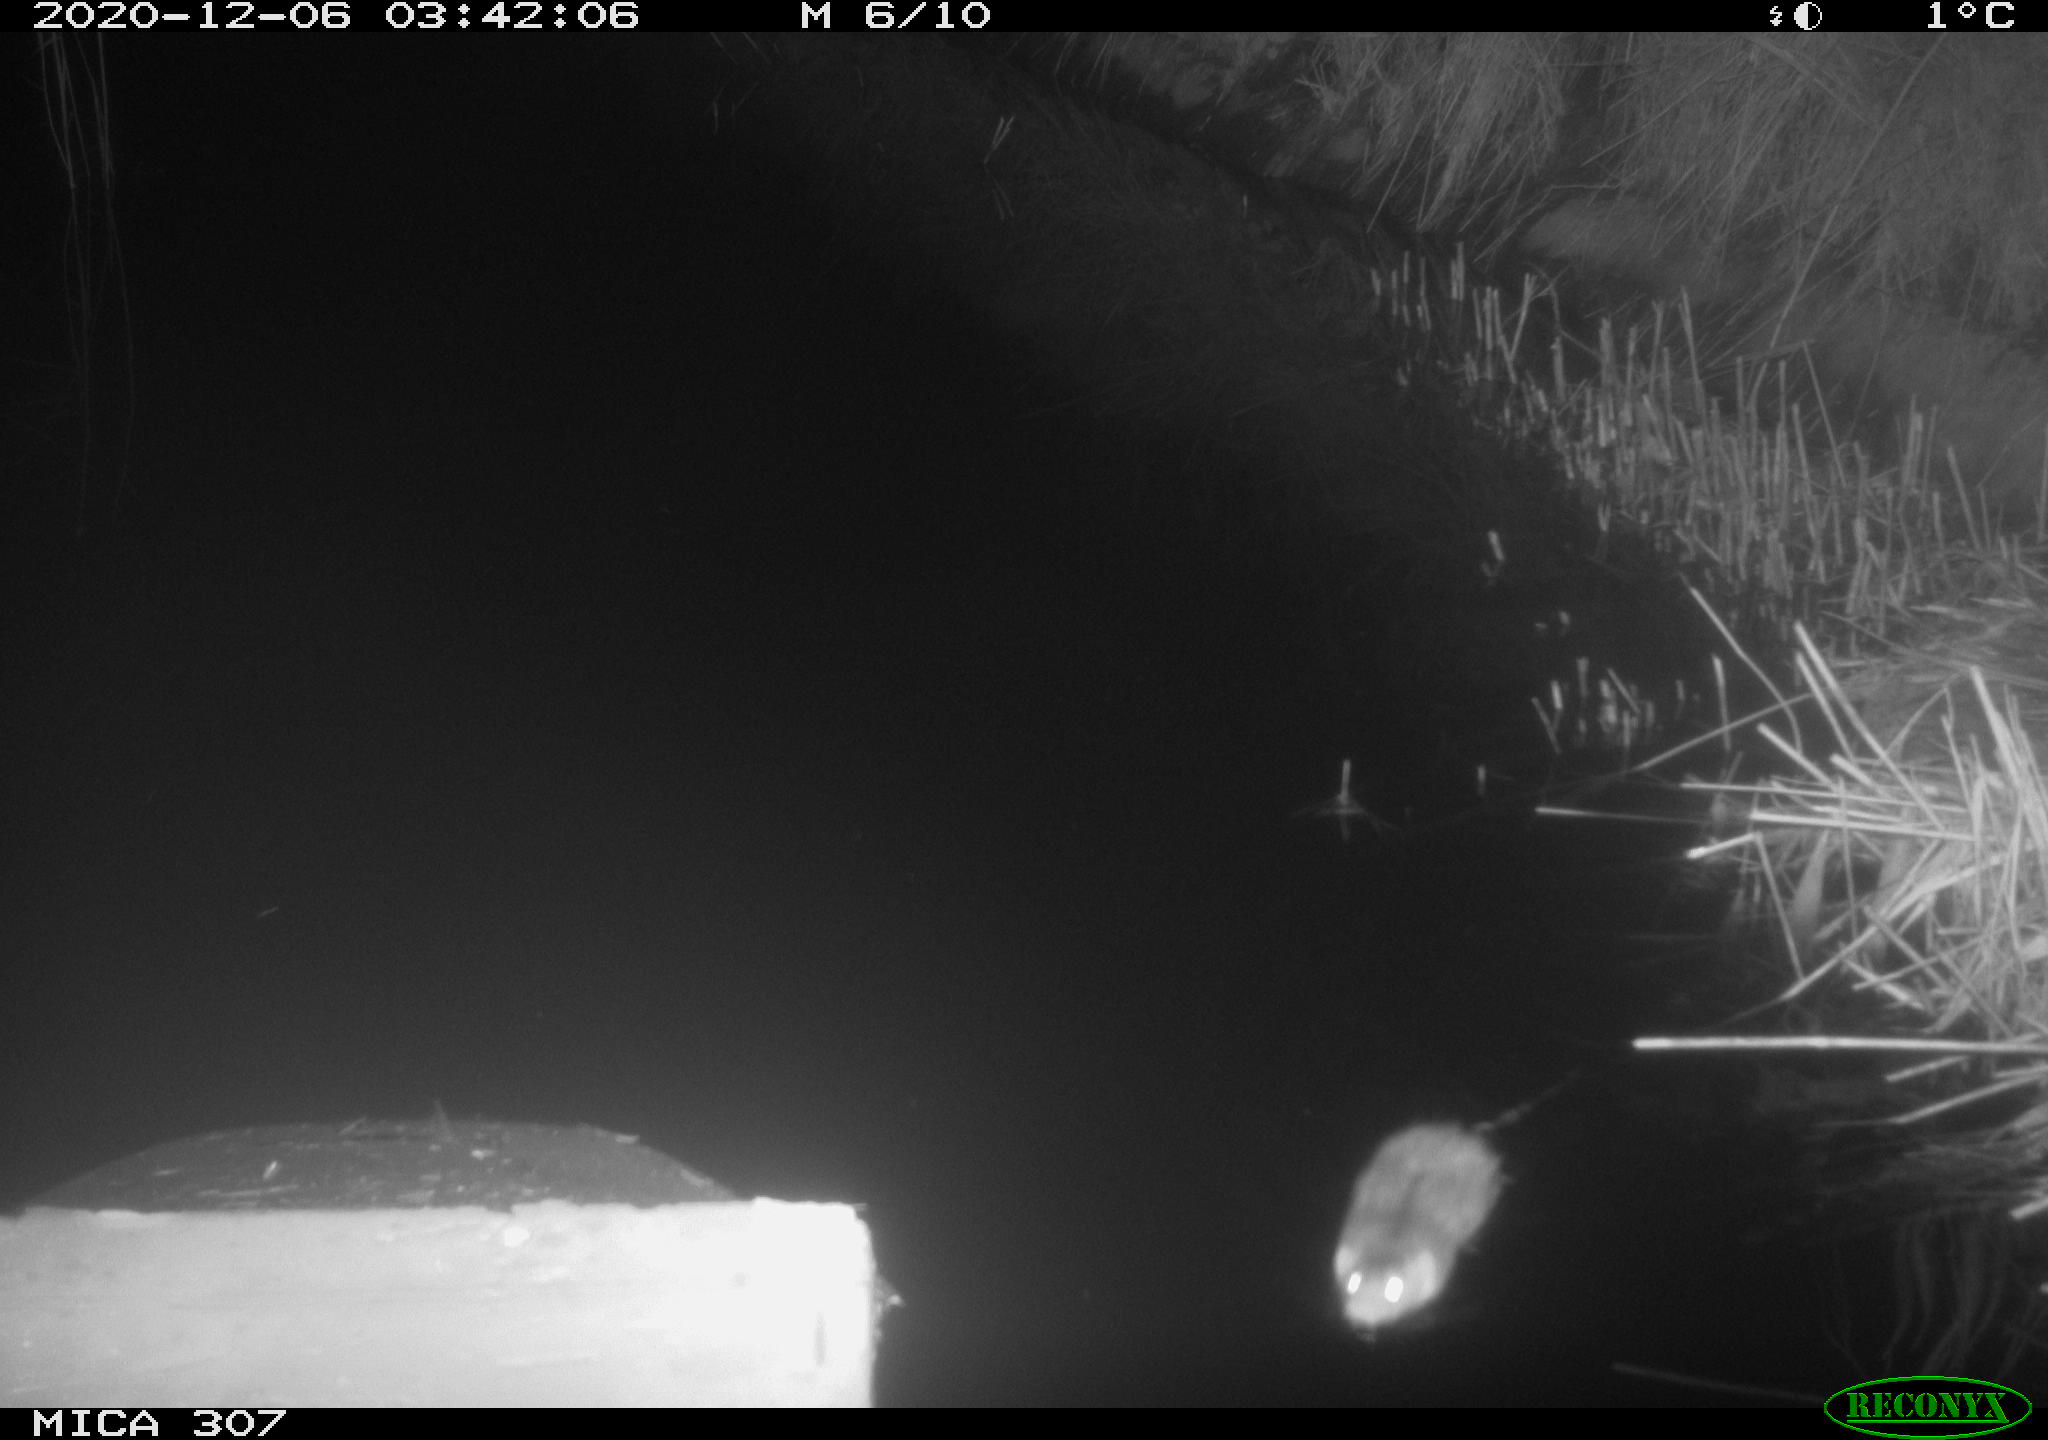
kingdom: Animalia
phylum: Chordata
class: Mammalia
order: Rodentia
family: Muridae
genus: Rattus
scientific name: Rattus norvegicus
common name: Brown rat
